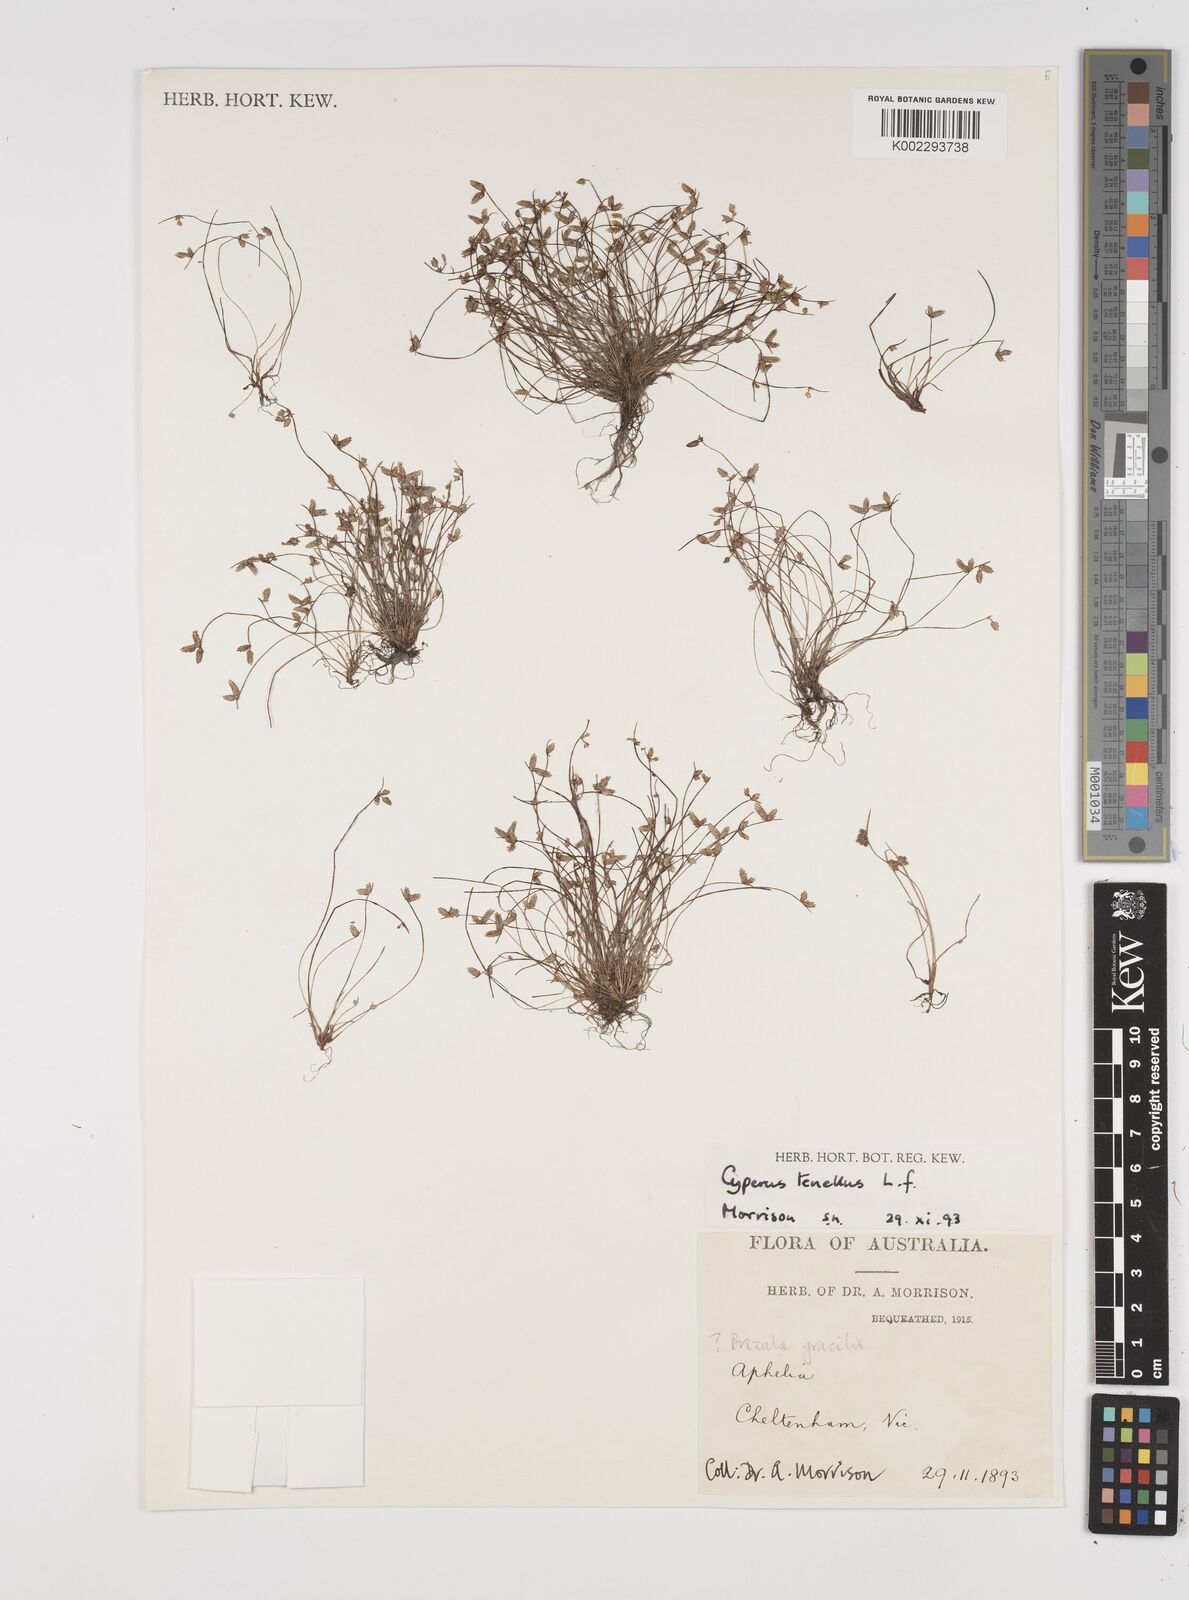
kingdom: Plantae
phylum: Tracheophyta
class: Liliopsida
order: Poales
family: Cyperaceae
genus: Isolepis
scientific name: Isolepis levynsiana
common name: Sedge
